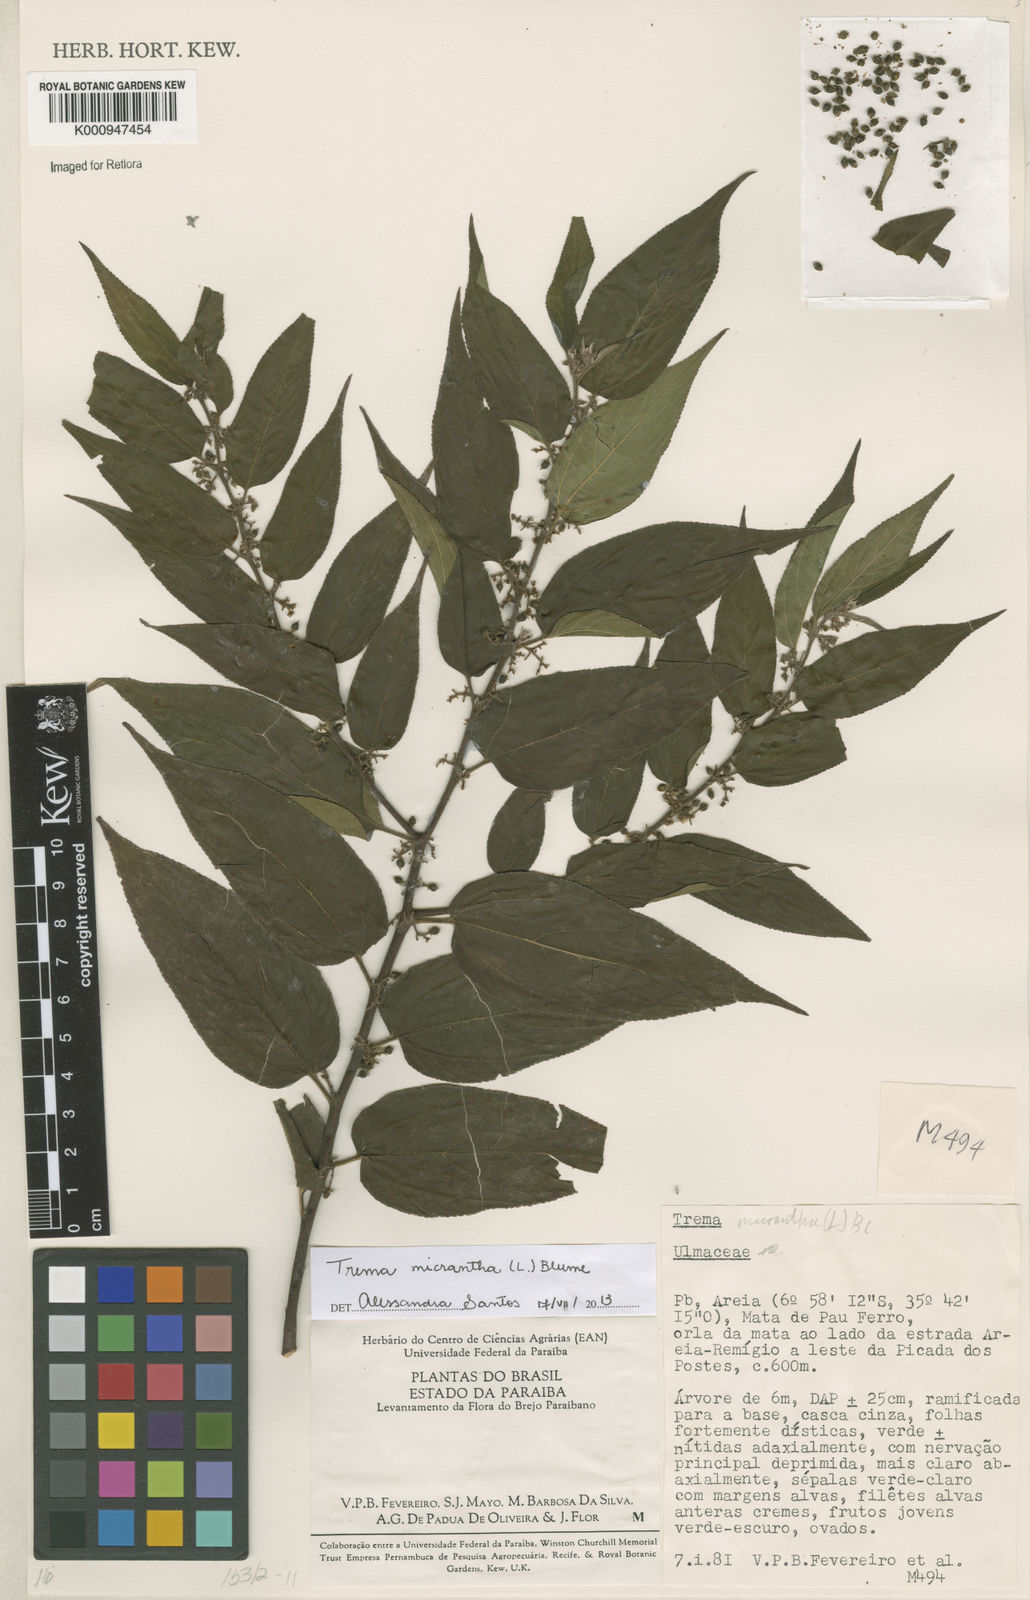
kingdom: Plantae
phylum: Tracheophyta
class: Magnoliopsida
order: Rosales
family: Cannabaceae
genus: Trema
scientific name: Trema micranthum
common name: Jamaican nettletree
